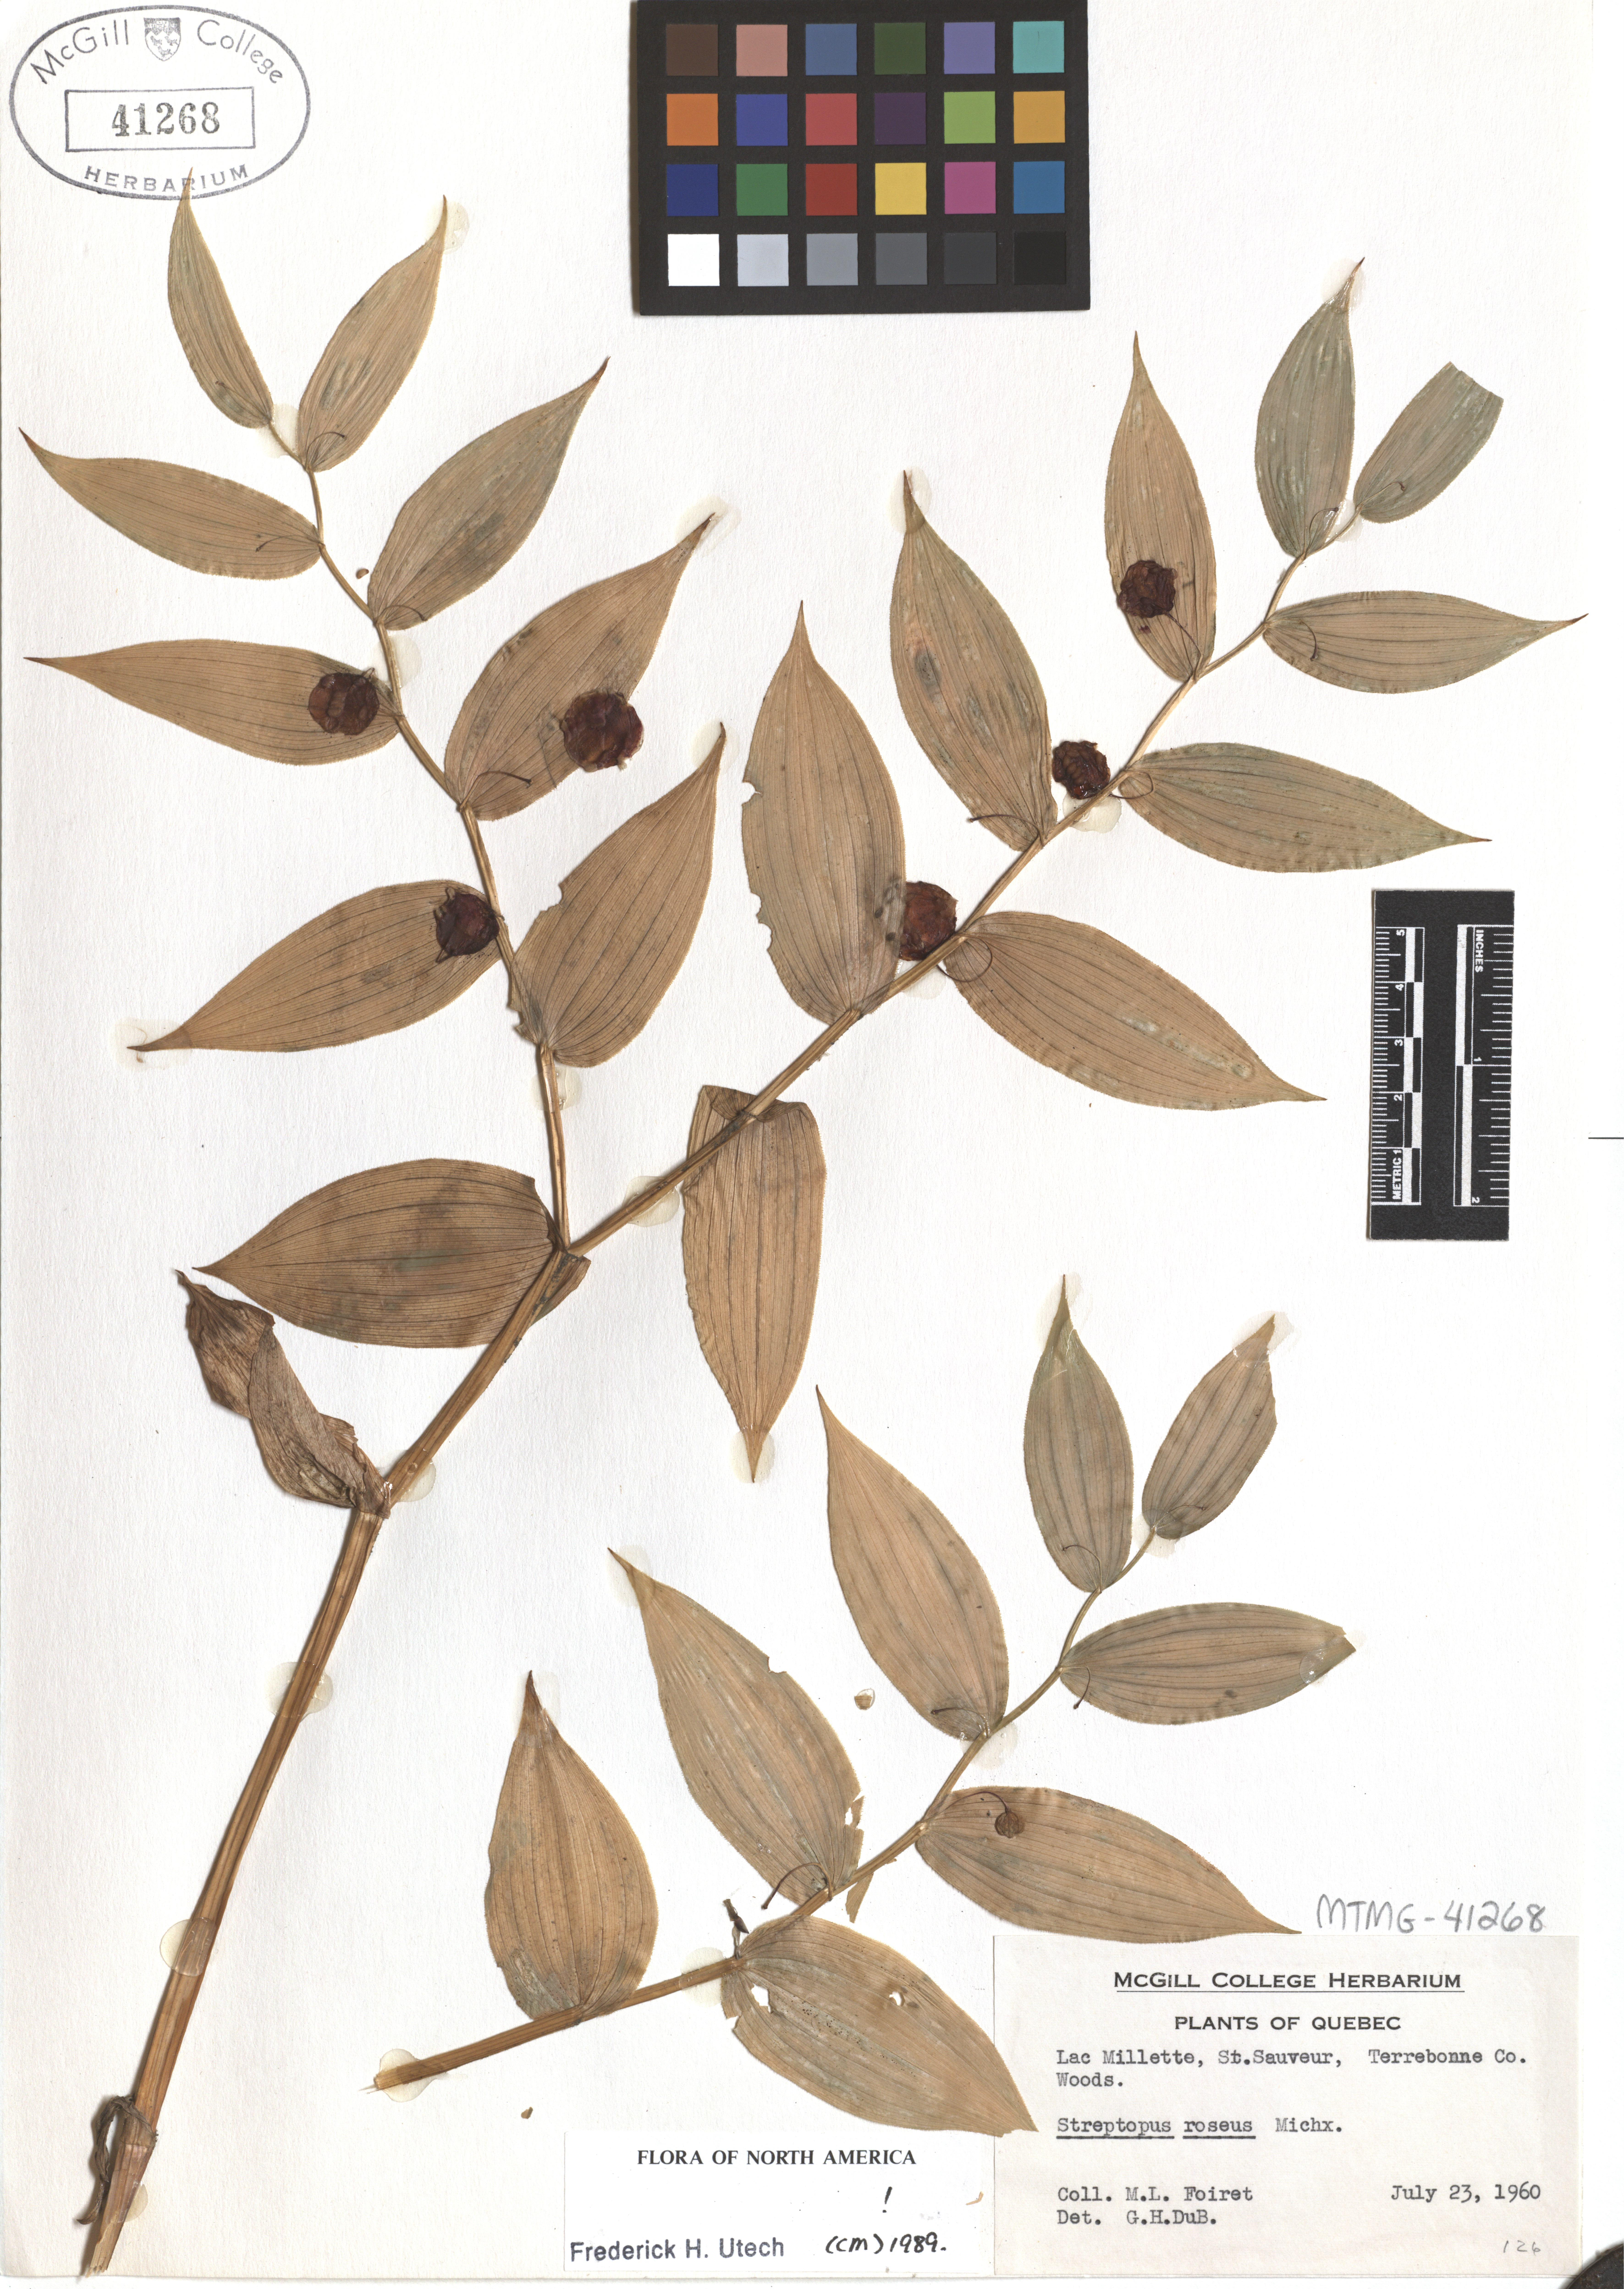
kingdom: Plantae
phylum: Tracheophyta
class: Liliopsida
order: Liliales
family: Liliaceae
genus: Streptopus
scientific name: Streptopus lanceolatus
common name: Rose mandarin
